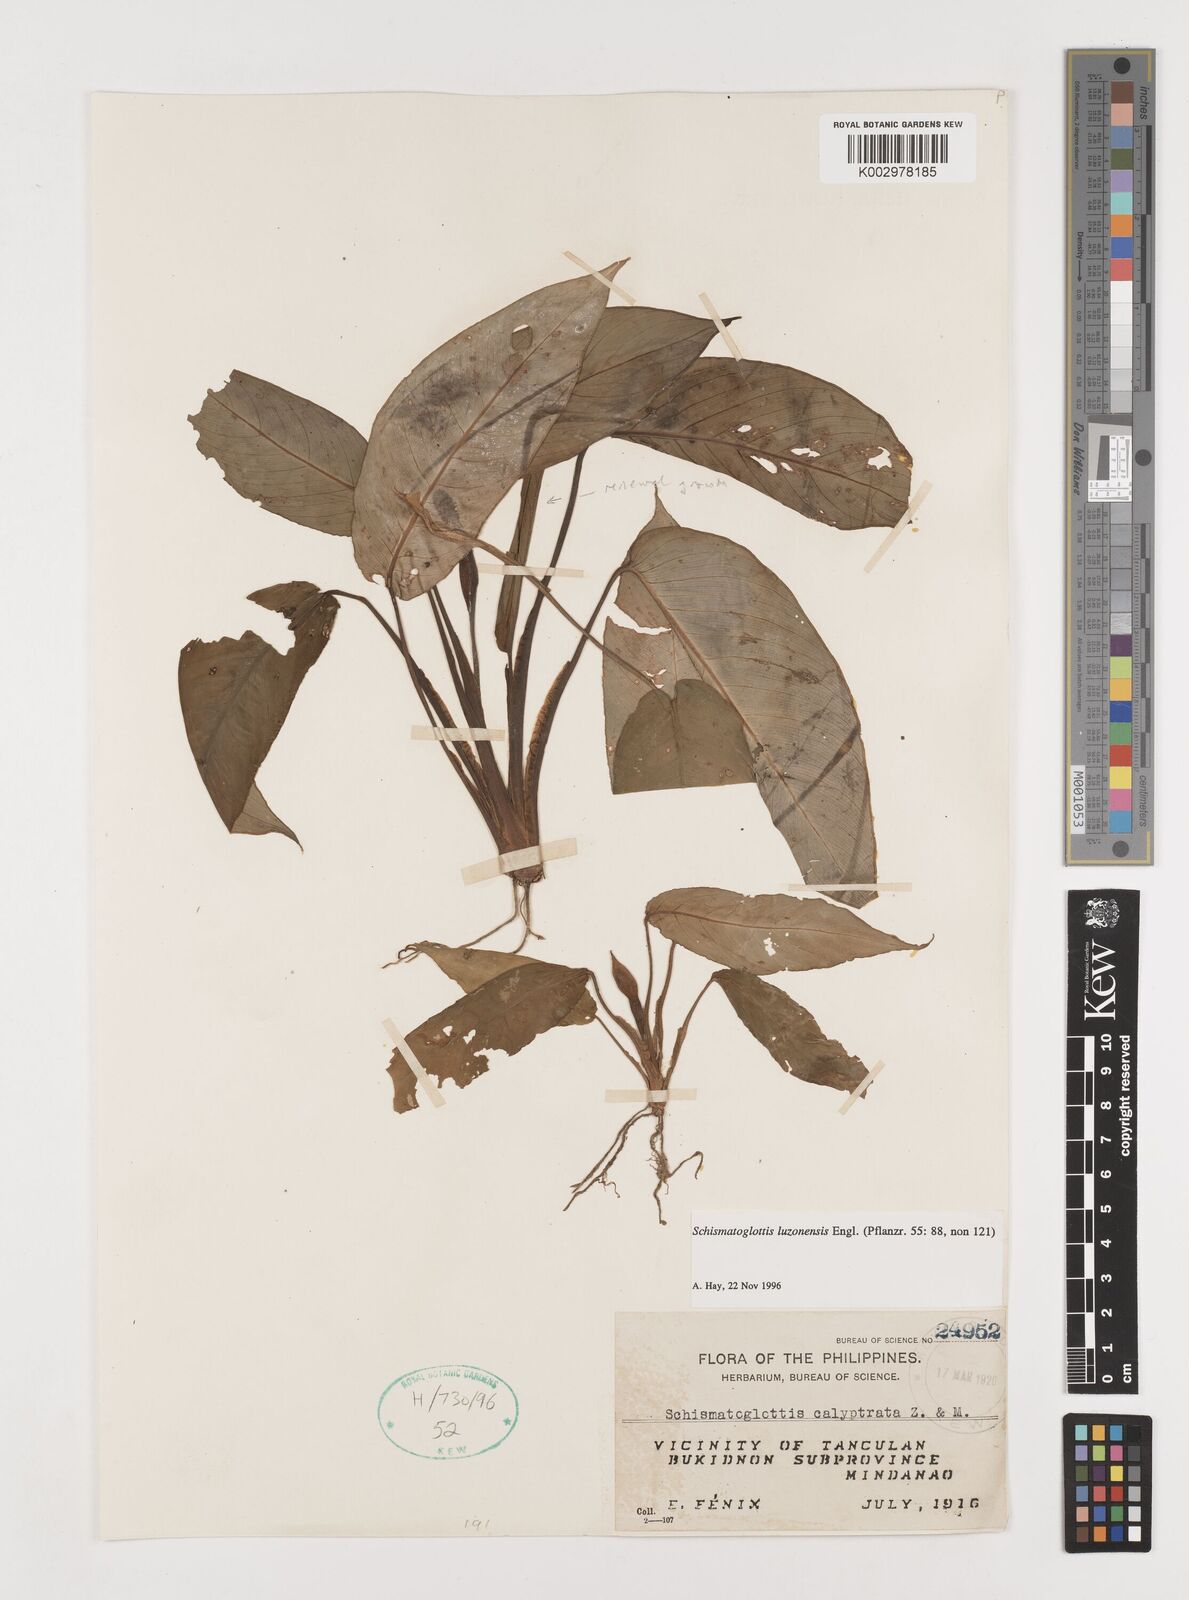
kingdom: Plantae
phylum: Tracheophyta
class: Liliopsida
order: Alismatales
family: Araceae
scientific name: Araceae
